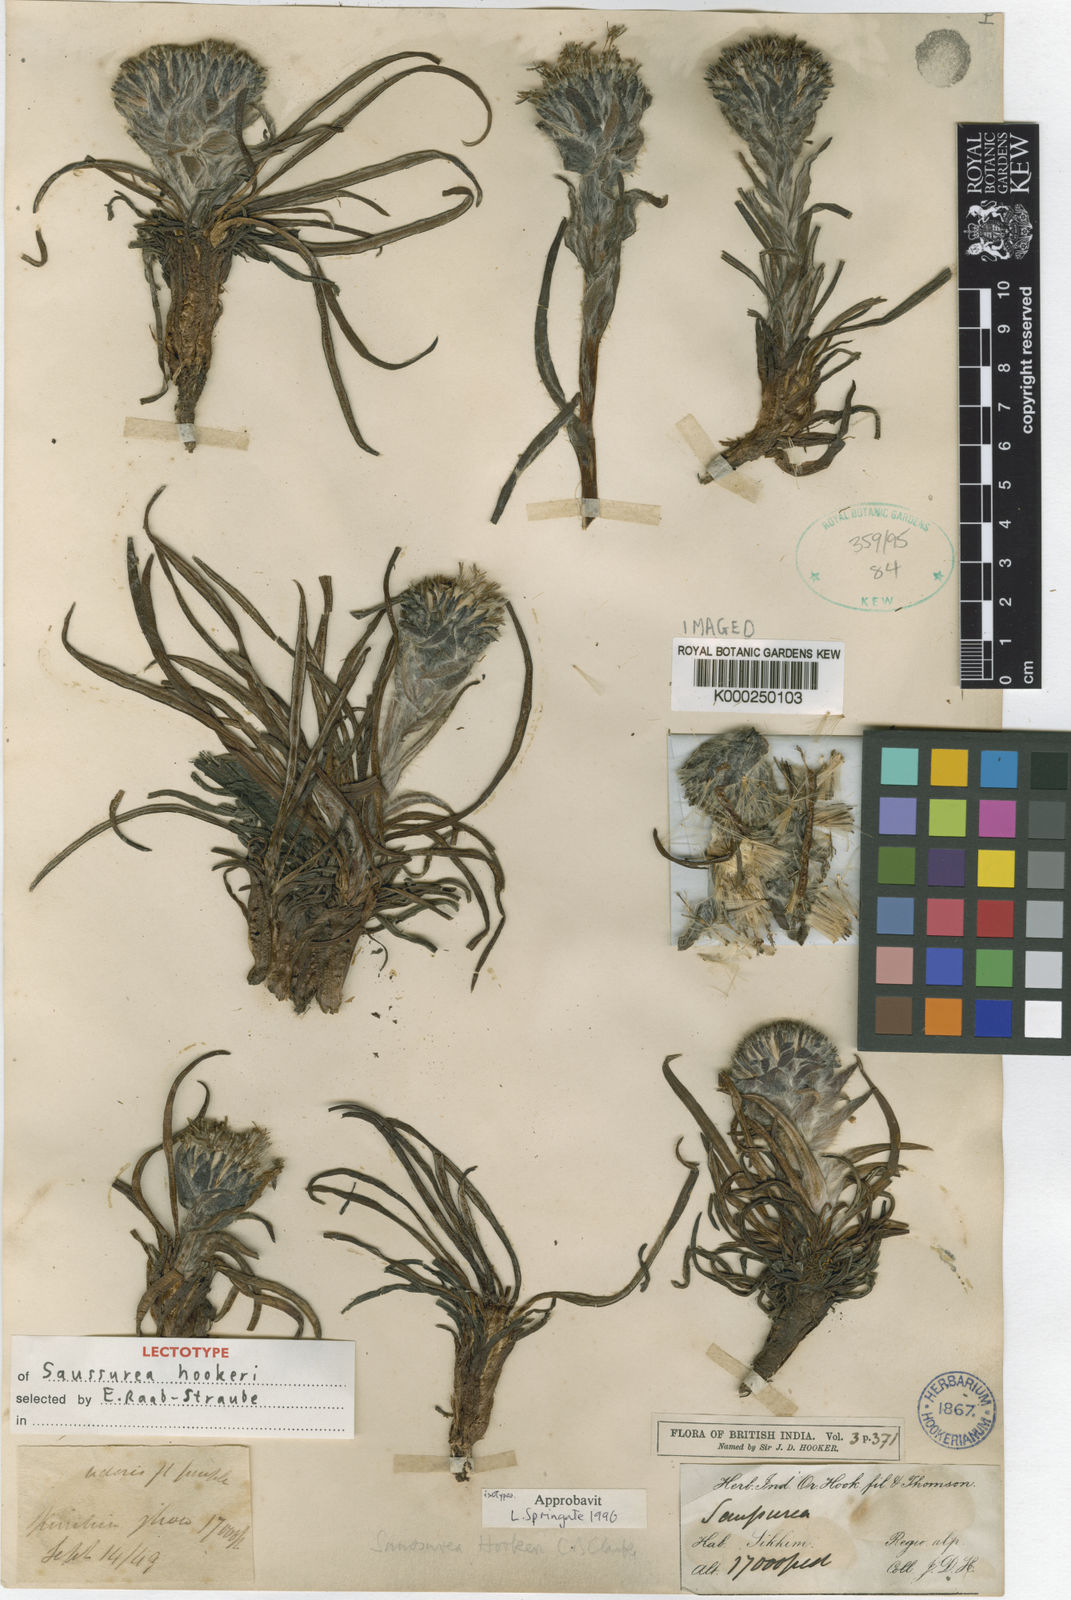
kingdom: Plantae
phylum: Tracheophyta
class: Magnoliopsida
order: Asterales
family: Asteraceae
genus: Saussurea
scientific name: Saussurea hookeri
